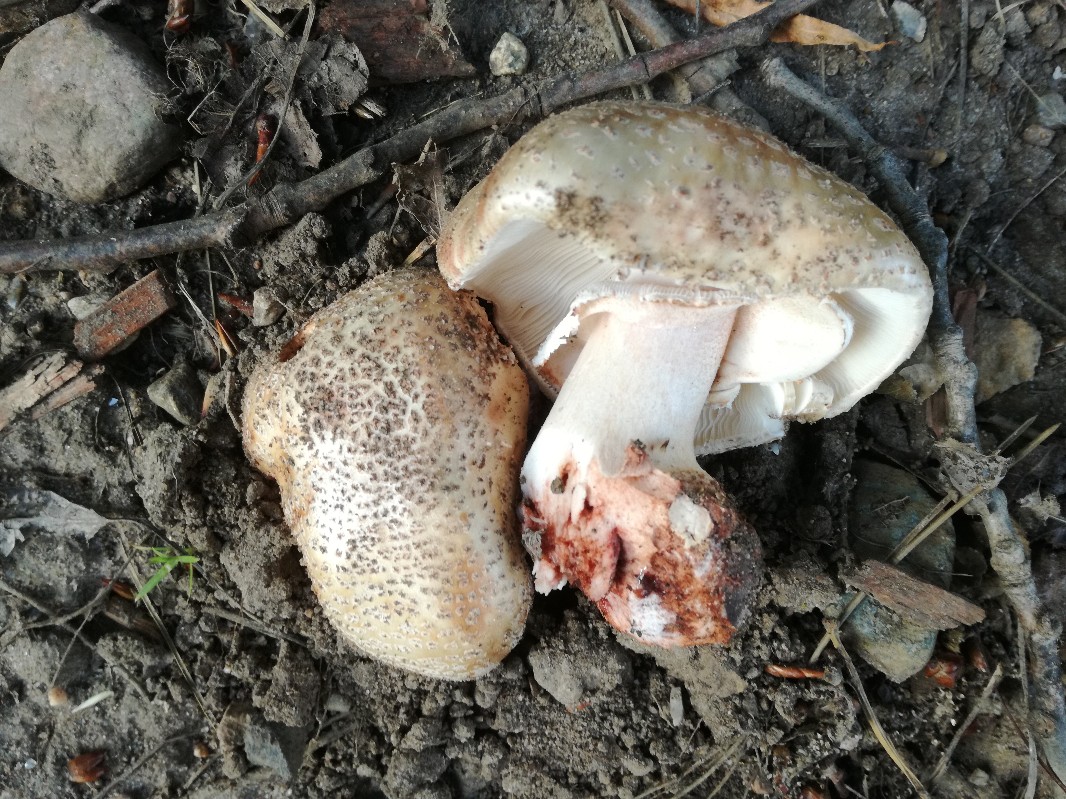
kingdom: Fungi
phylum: Basidiomycota
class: Agaricomycetes
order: Agaricales
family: Amanitaceae
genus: Amanita
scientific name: Amanita rubescens
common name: rødmende fluesvamp
